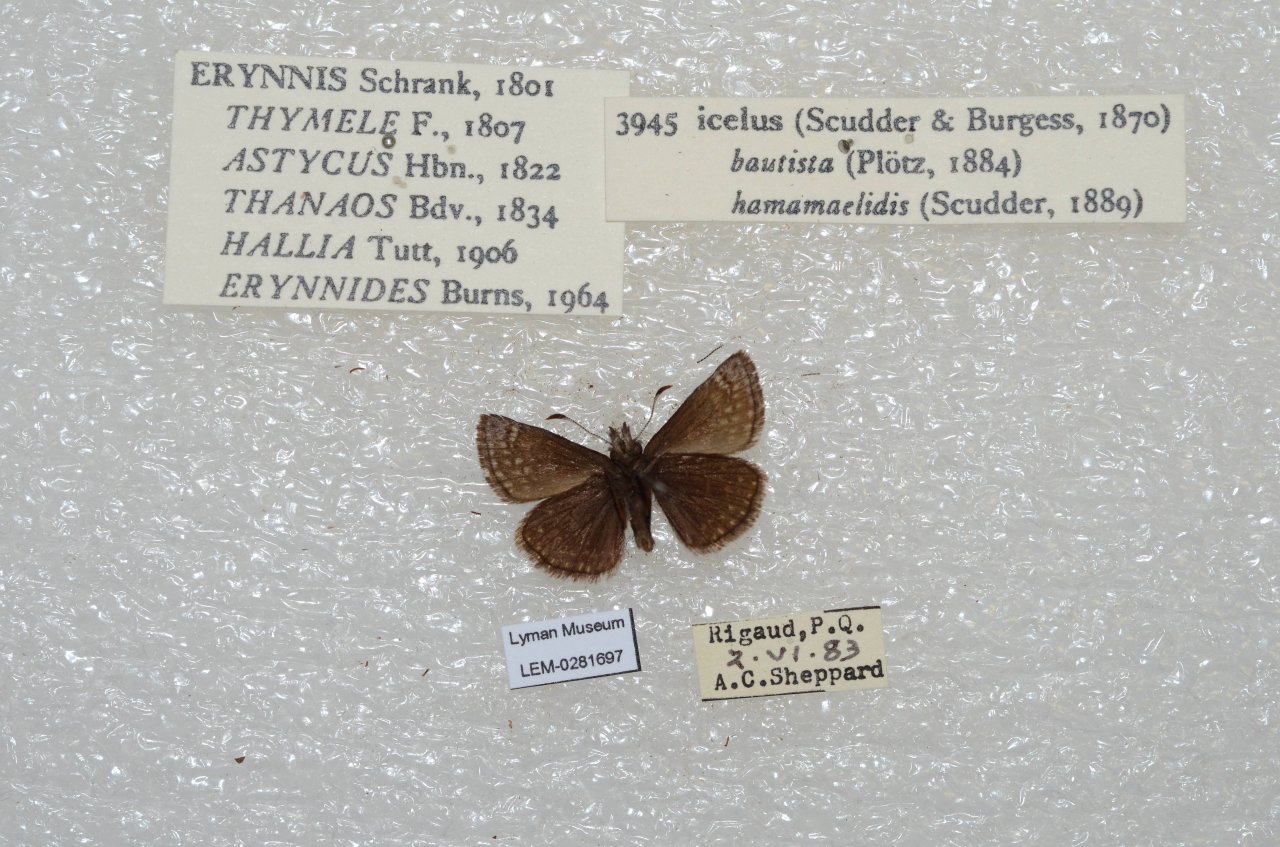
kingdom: Animalia
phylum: Arthropoda
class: Insecta
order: Lepidoptera
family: Hesperiidae
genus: Erynnis
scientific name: Erynnis icelus
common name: Dreamy Duskywing
